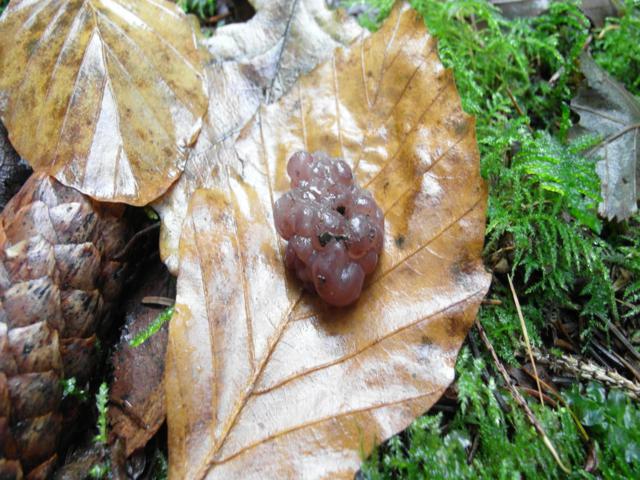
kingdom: Fungi
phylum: Ascomycota
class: Leotiomycetes
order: Helotiales
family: Gelatinodiscaceae
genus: Ascotremella
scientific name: Ascotremella faginea
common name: hjerne-bævreskive
